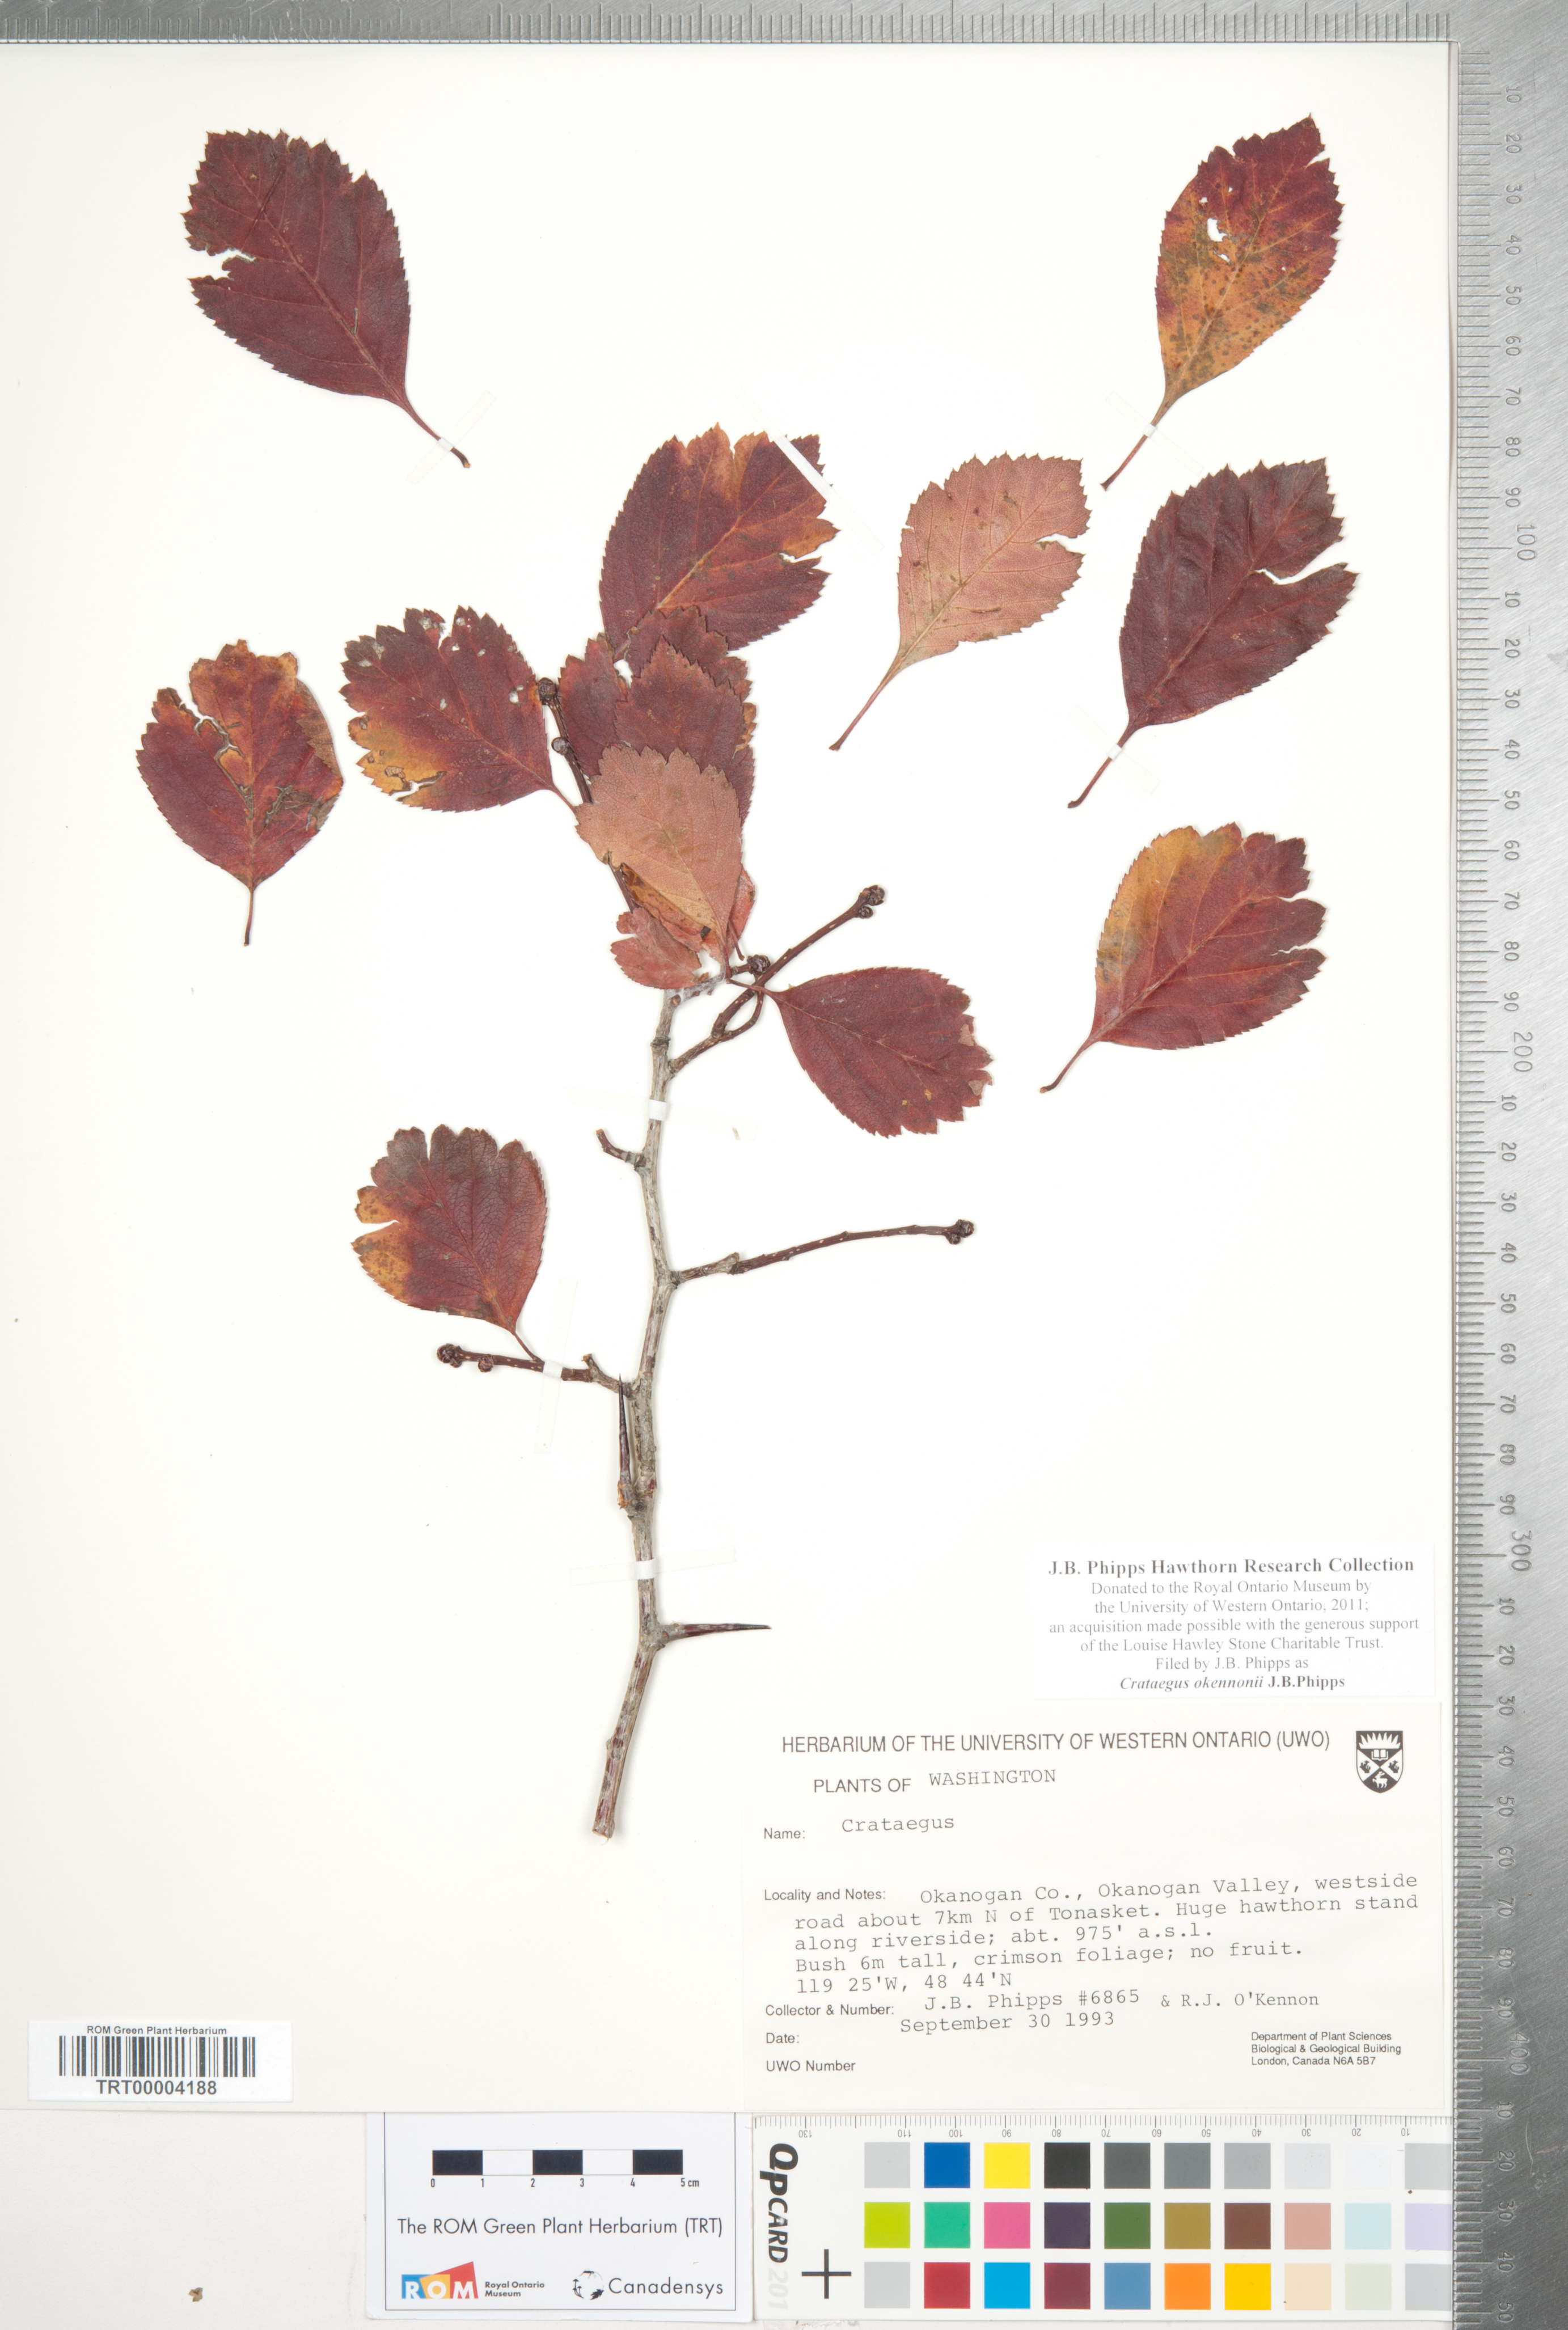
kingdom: Plantae
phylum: Tracheophyta
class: Magnoliopsida
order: Rosales
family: Rosaceae
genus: Crataegus
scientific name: Crataegus okennonii
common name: O'kennon's hawthorn
